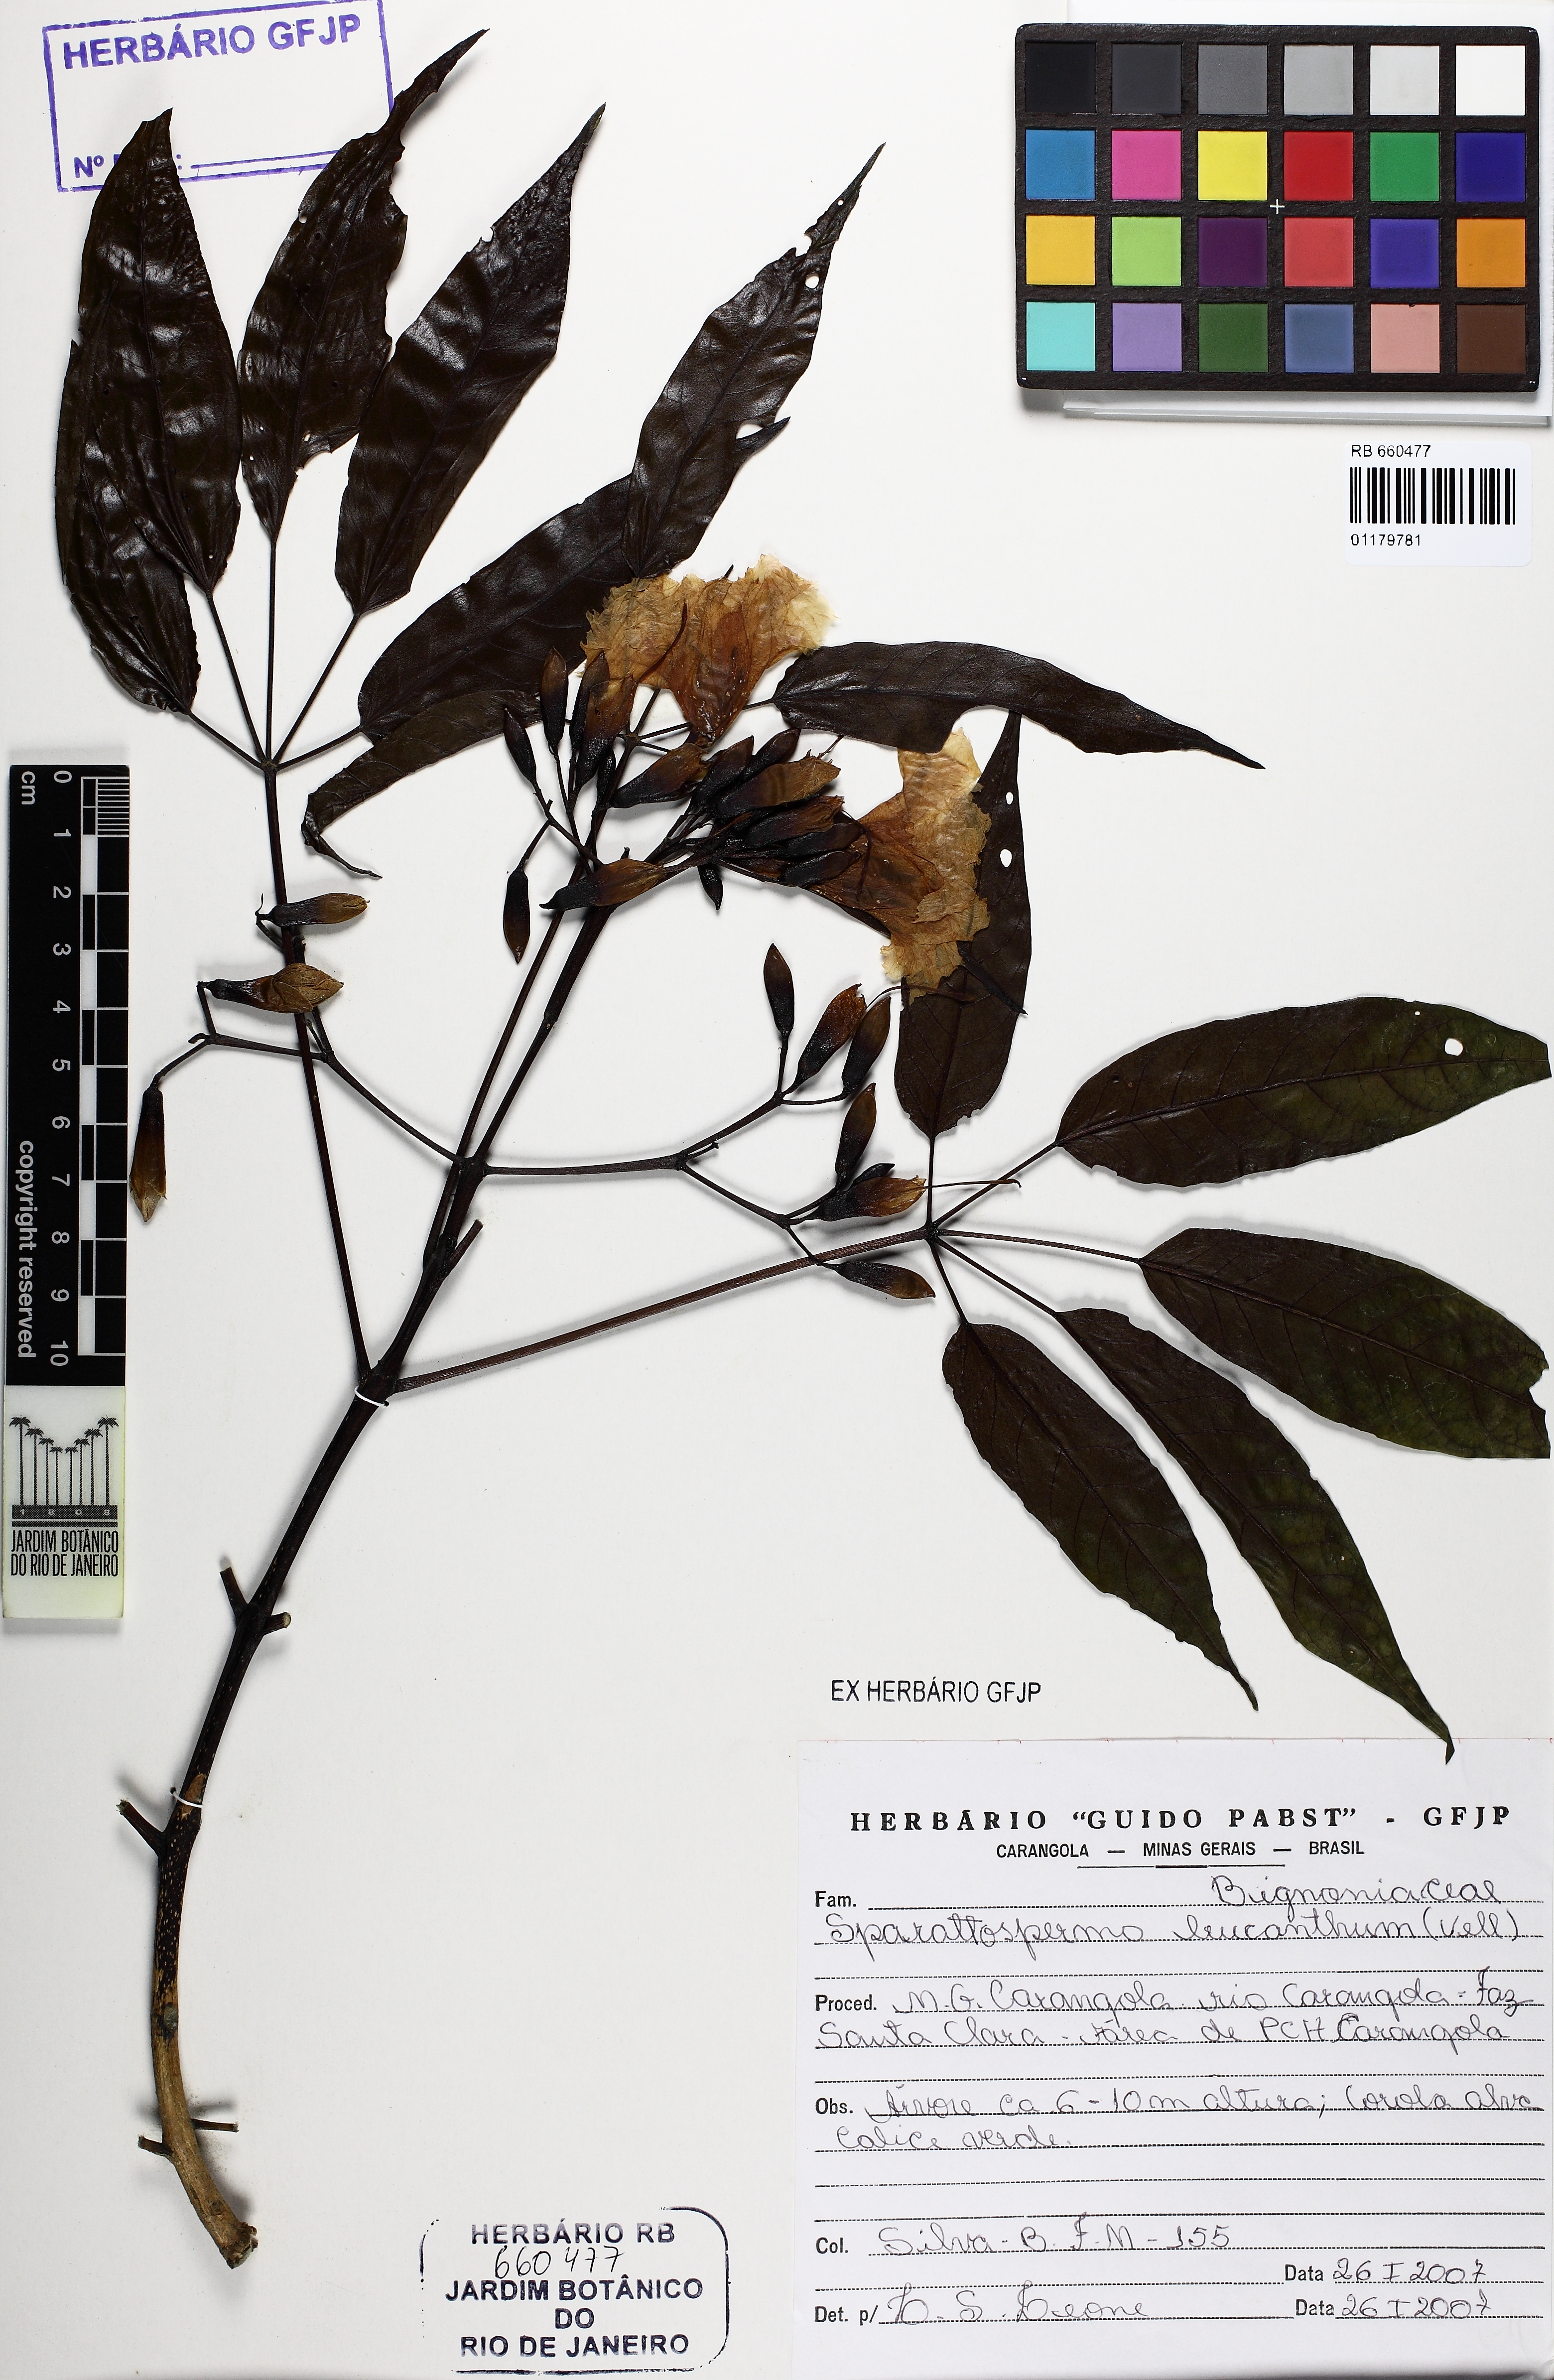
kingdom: Plantae
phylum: Tracheophyta
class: Magnoliopsida
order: Lamiales
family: Bignoniaceae
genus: Sparattosperma
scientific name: Sparattosperma leucanthum
